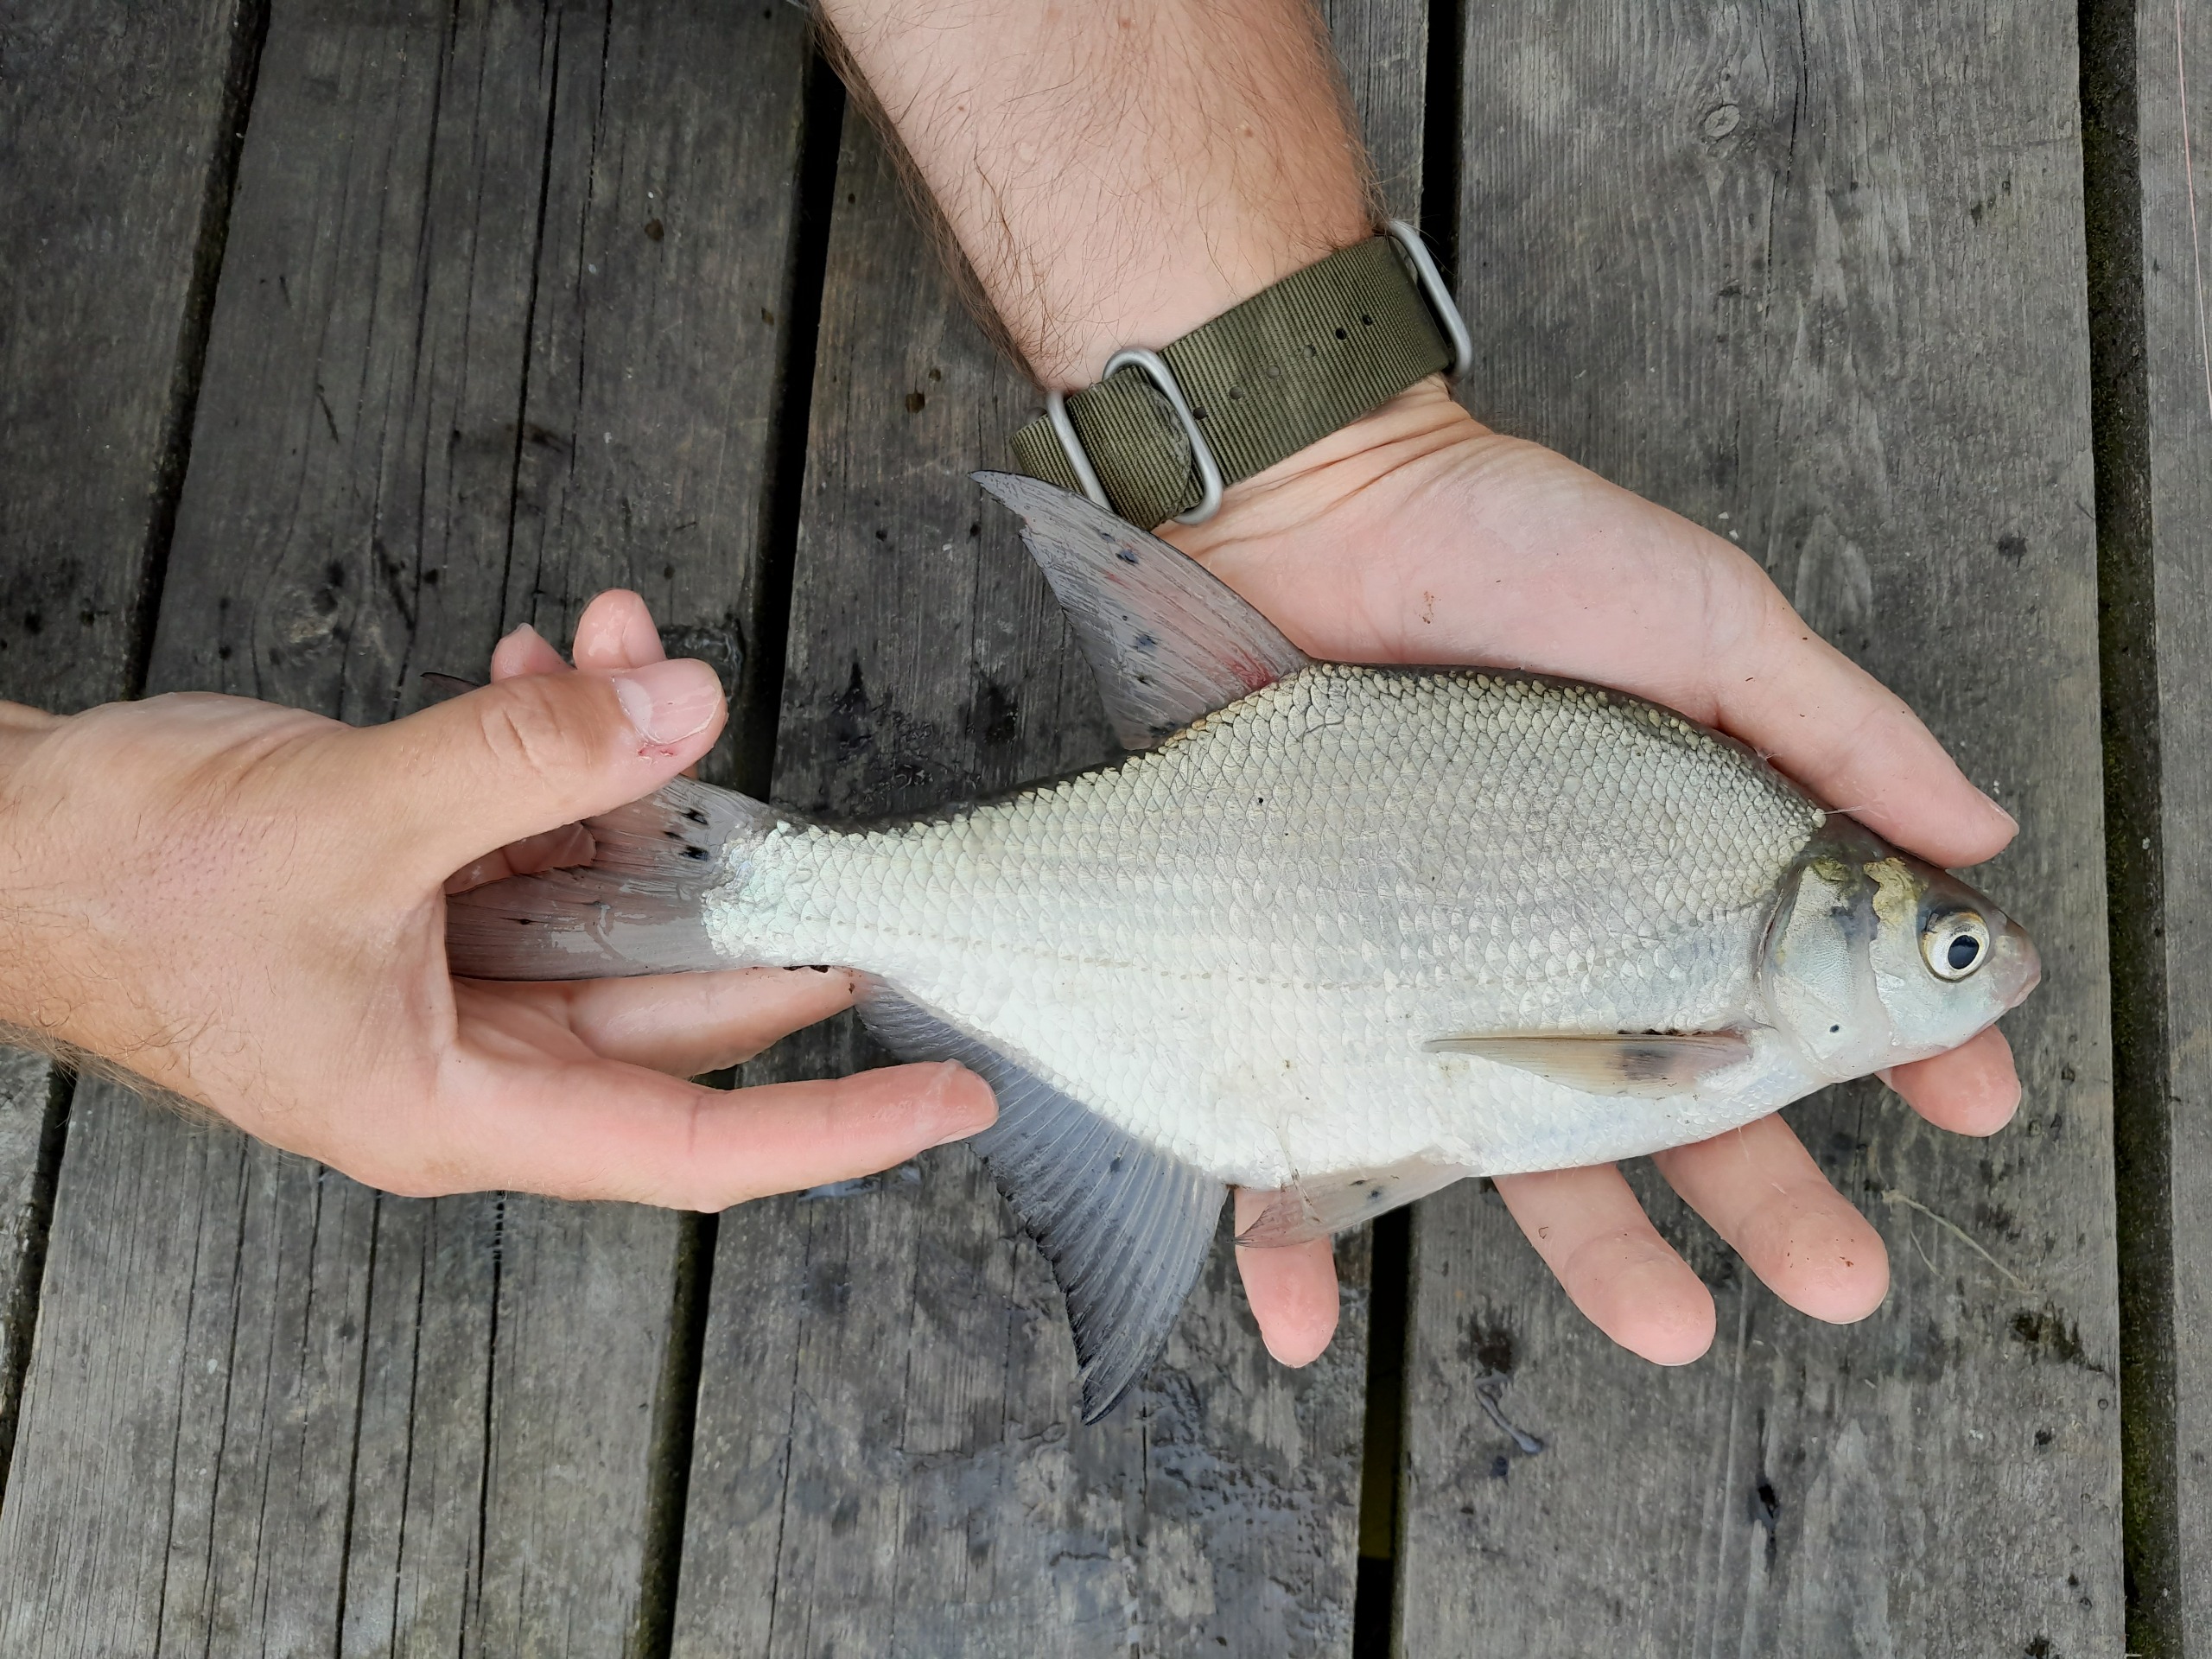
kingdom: Animalia
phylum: Chordata
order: Cypriniformes
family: Cyprinidae
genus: Abramis
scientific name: Abramis brama
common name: Brasen
